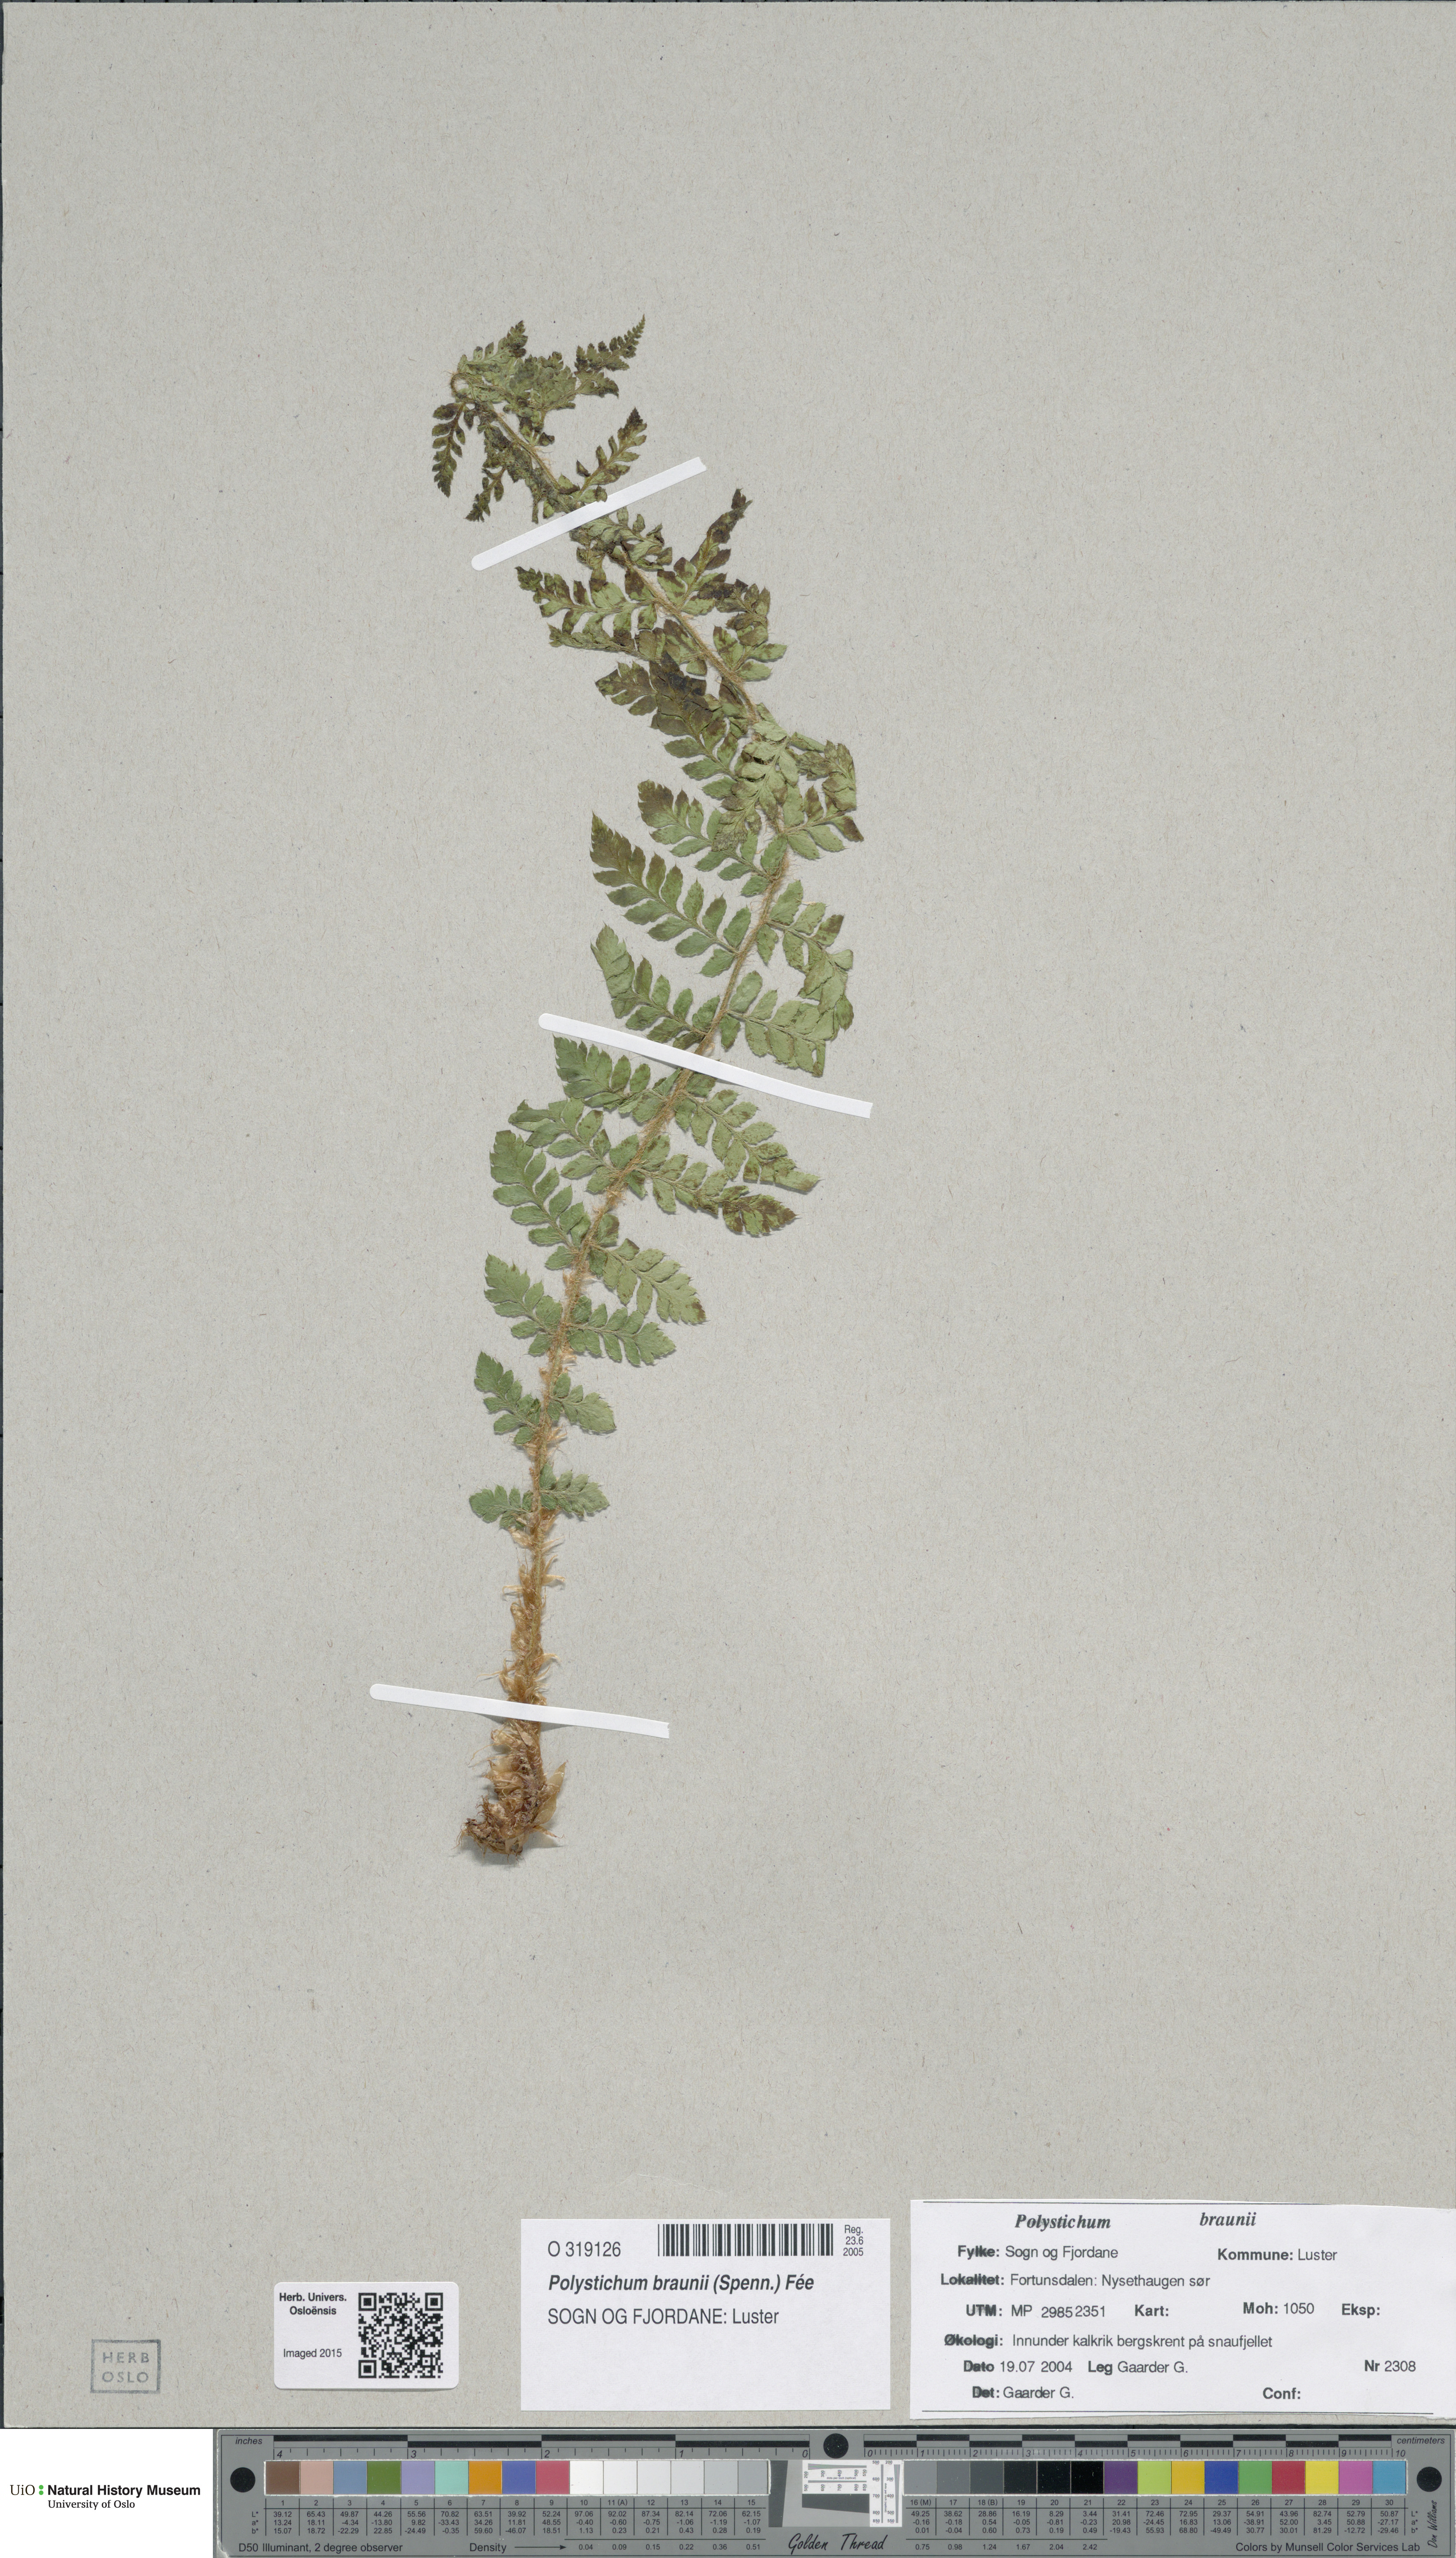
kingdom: Plantae
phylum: Tracheophyta
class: Polypodiopsida
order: Polypodiales
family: Dryopteridaceae
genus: Polystichum
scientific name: Polystichum braunii
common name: Braun's holly fern
